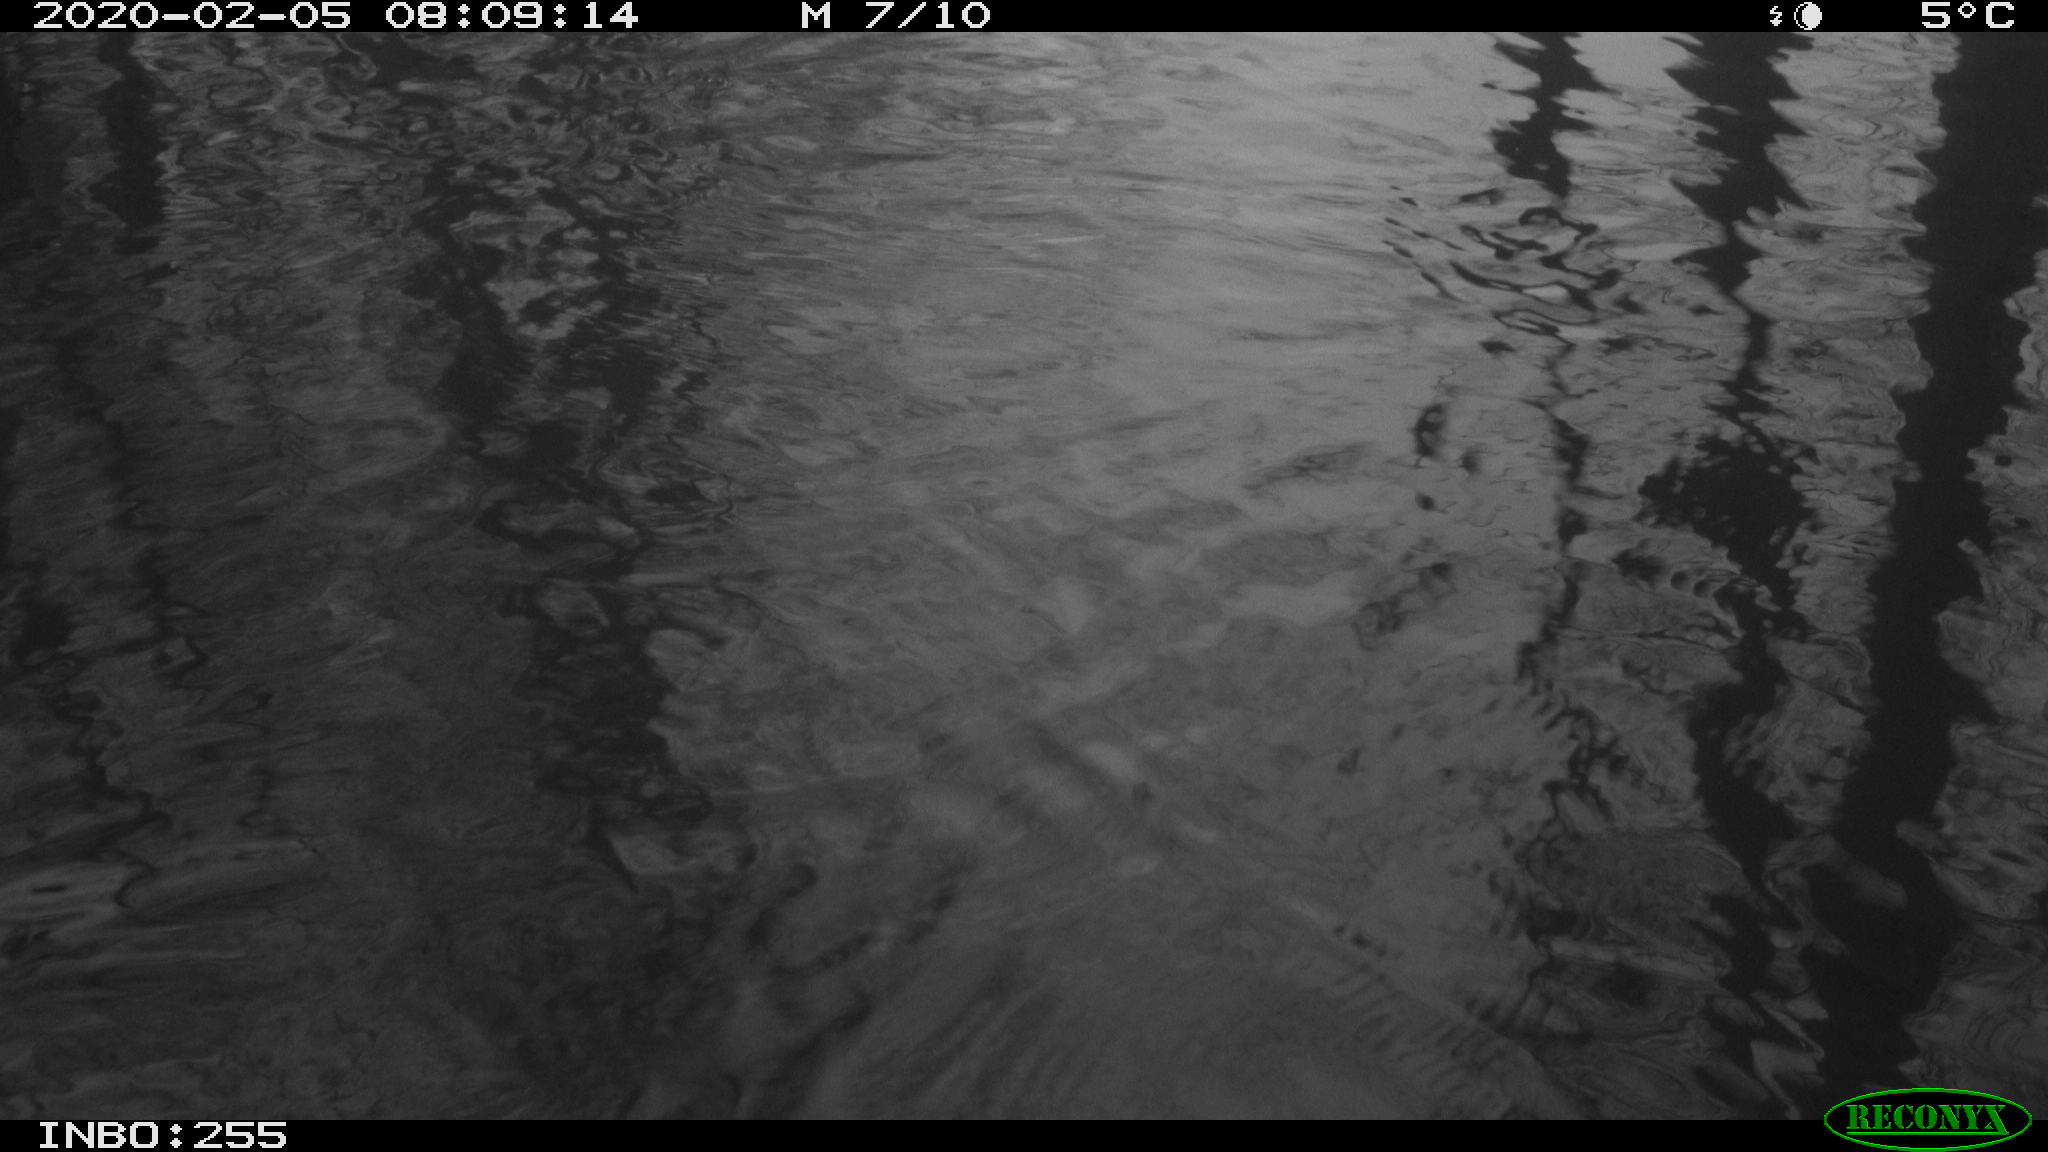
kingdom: Animalia
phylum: Chordata
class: Aves
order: Gruiformes
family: Rallidae
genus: Gallinula
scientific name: Gallinula chloropus
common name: Common moorhen
